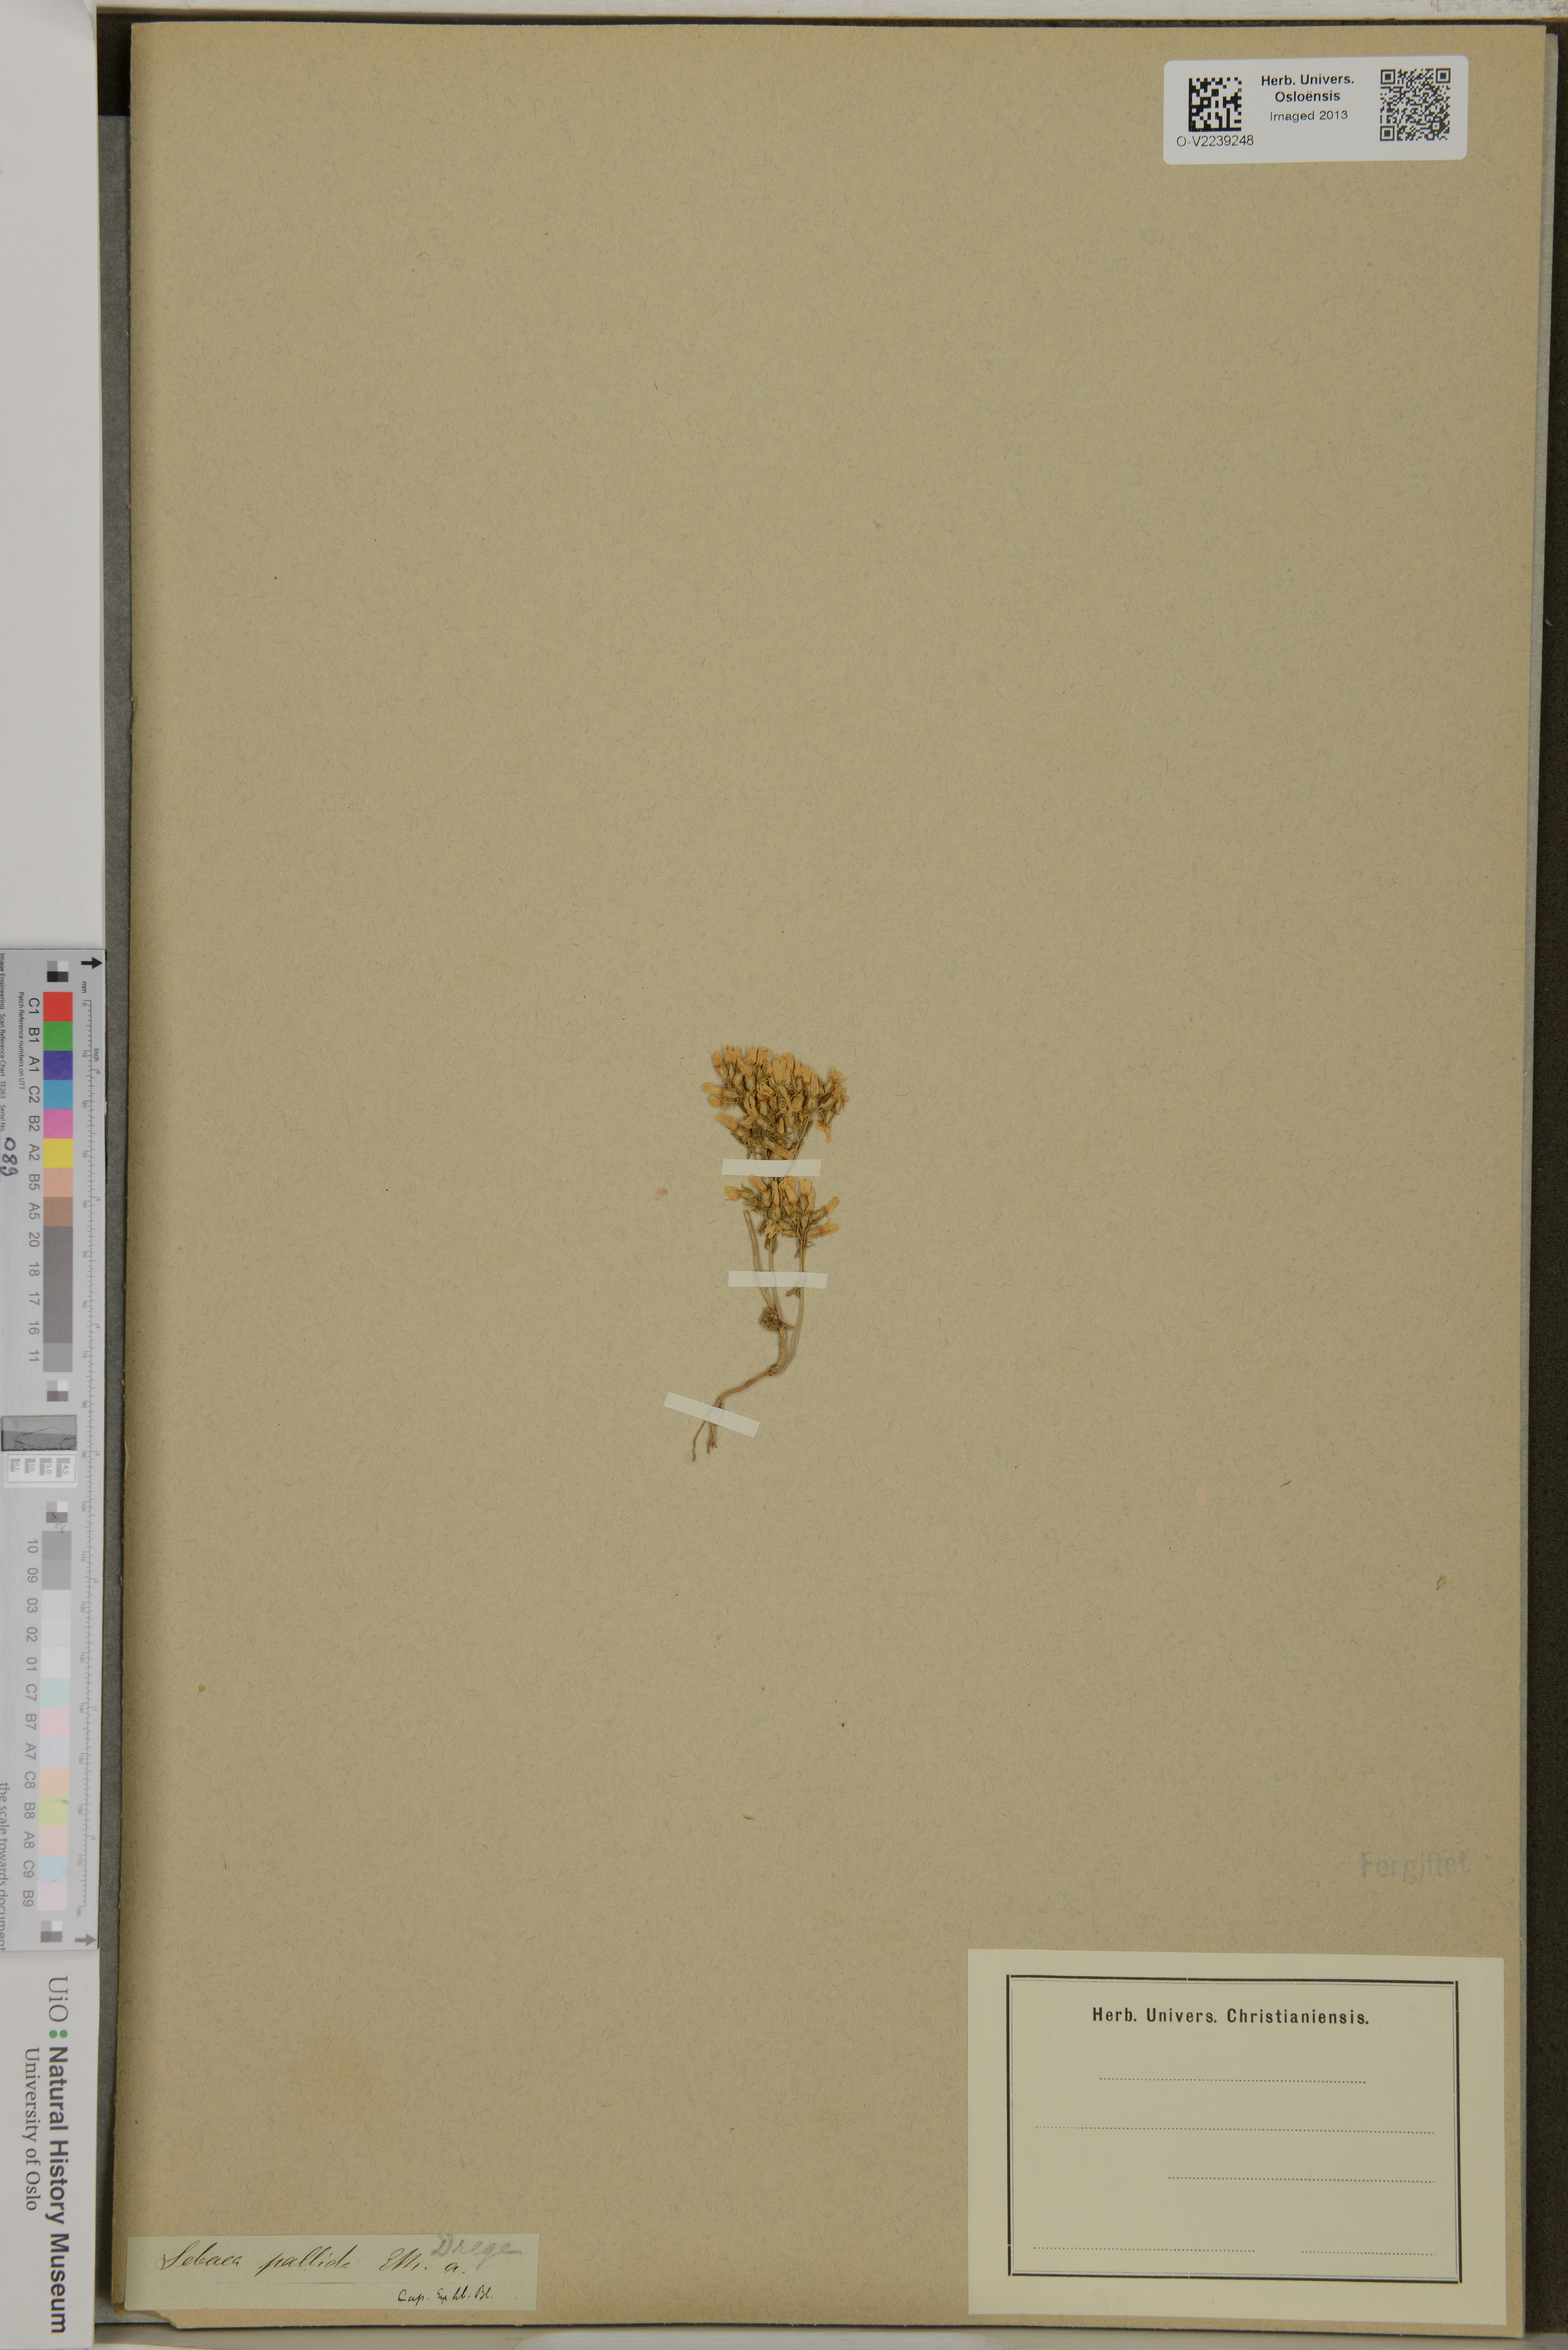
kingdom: Plantae
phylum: Tracheophyta
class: Magnoliopsida
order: Gentianales
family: Gentianaceae
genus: Sebaea
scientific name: Sebaea aurea
